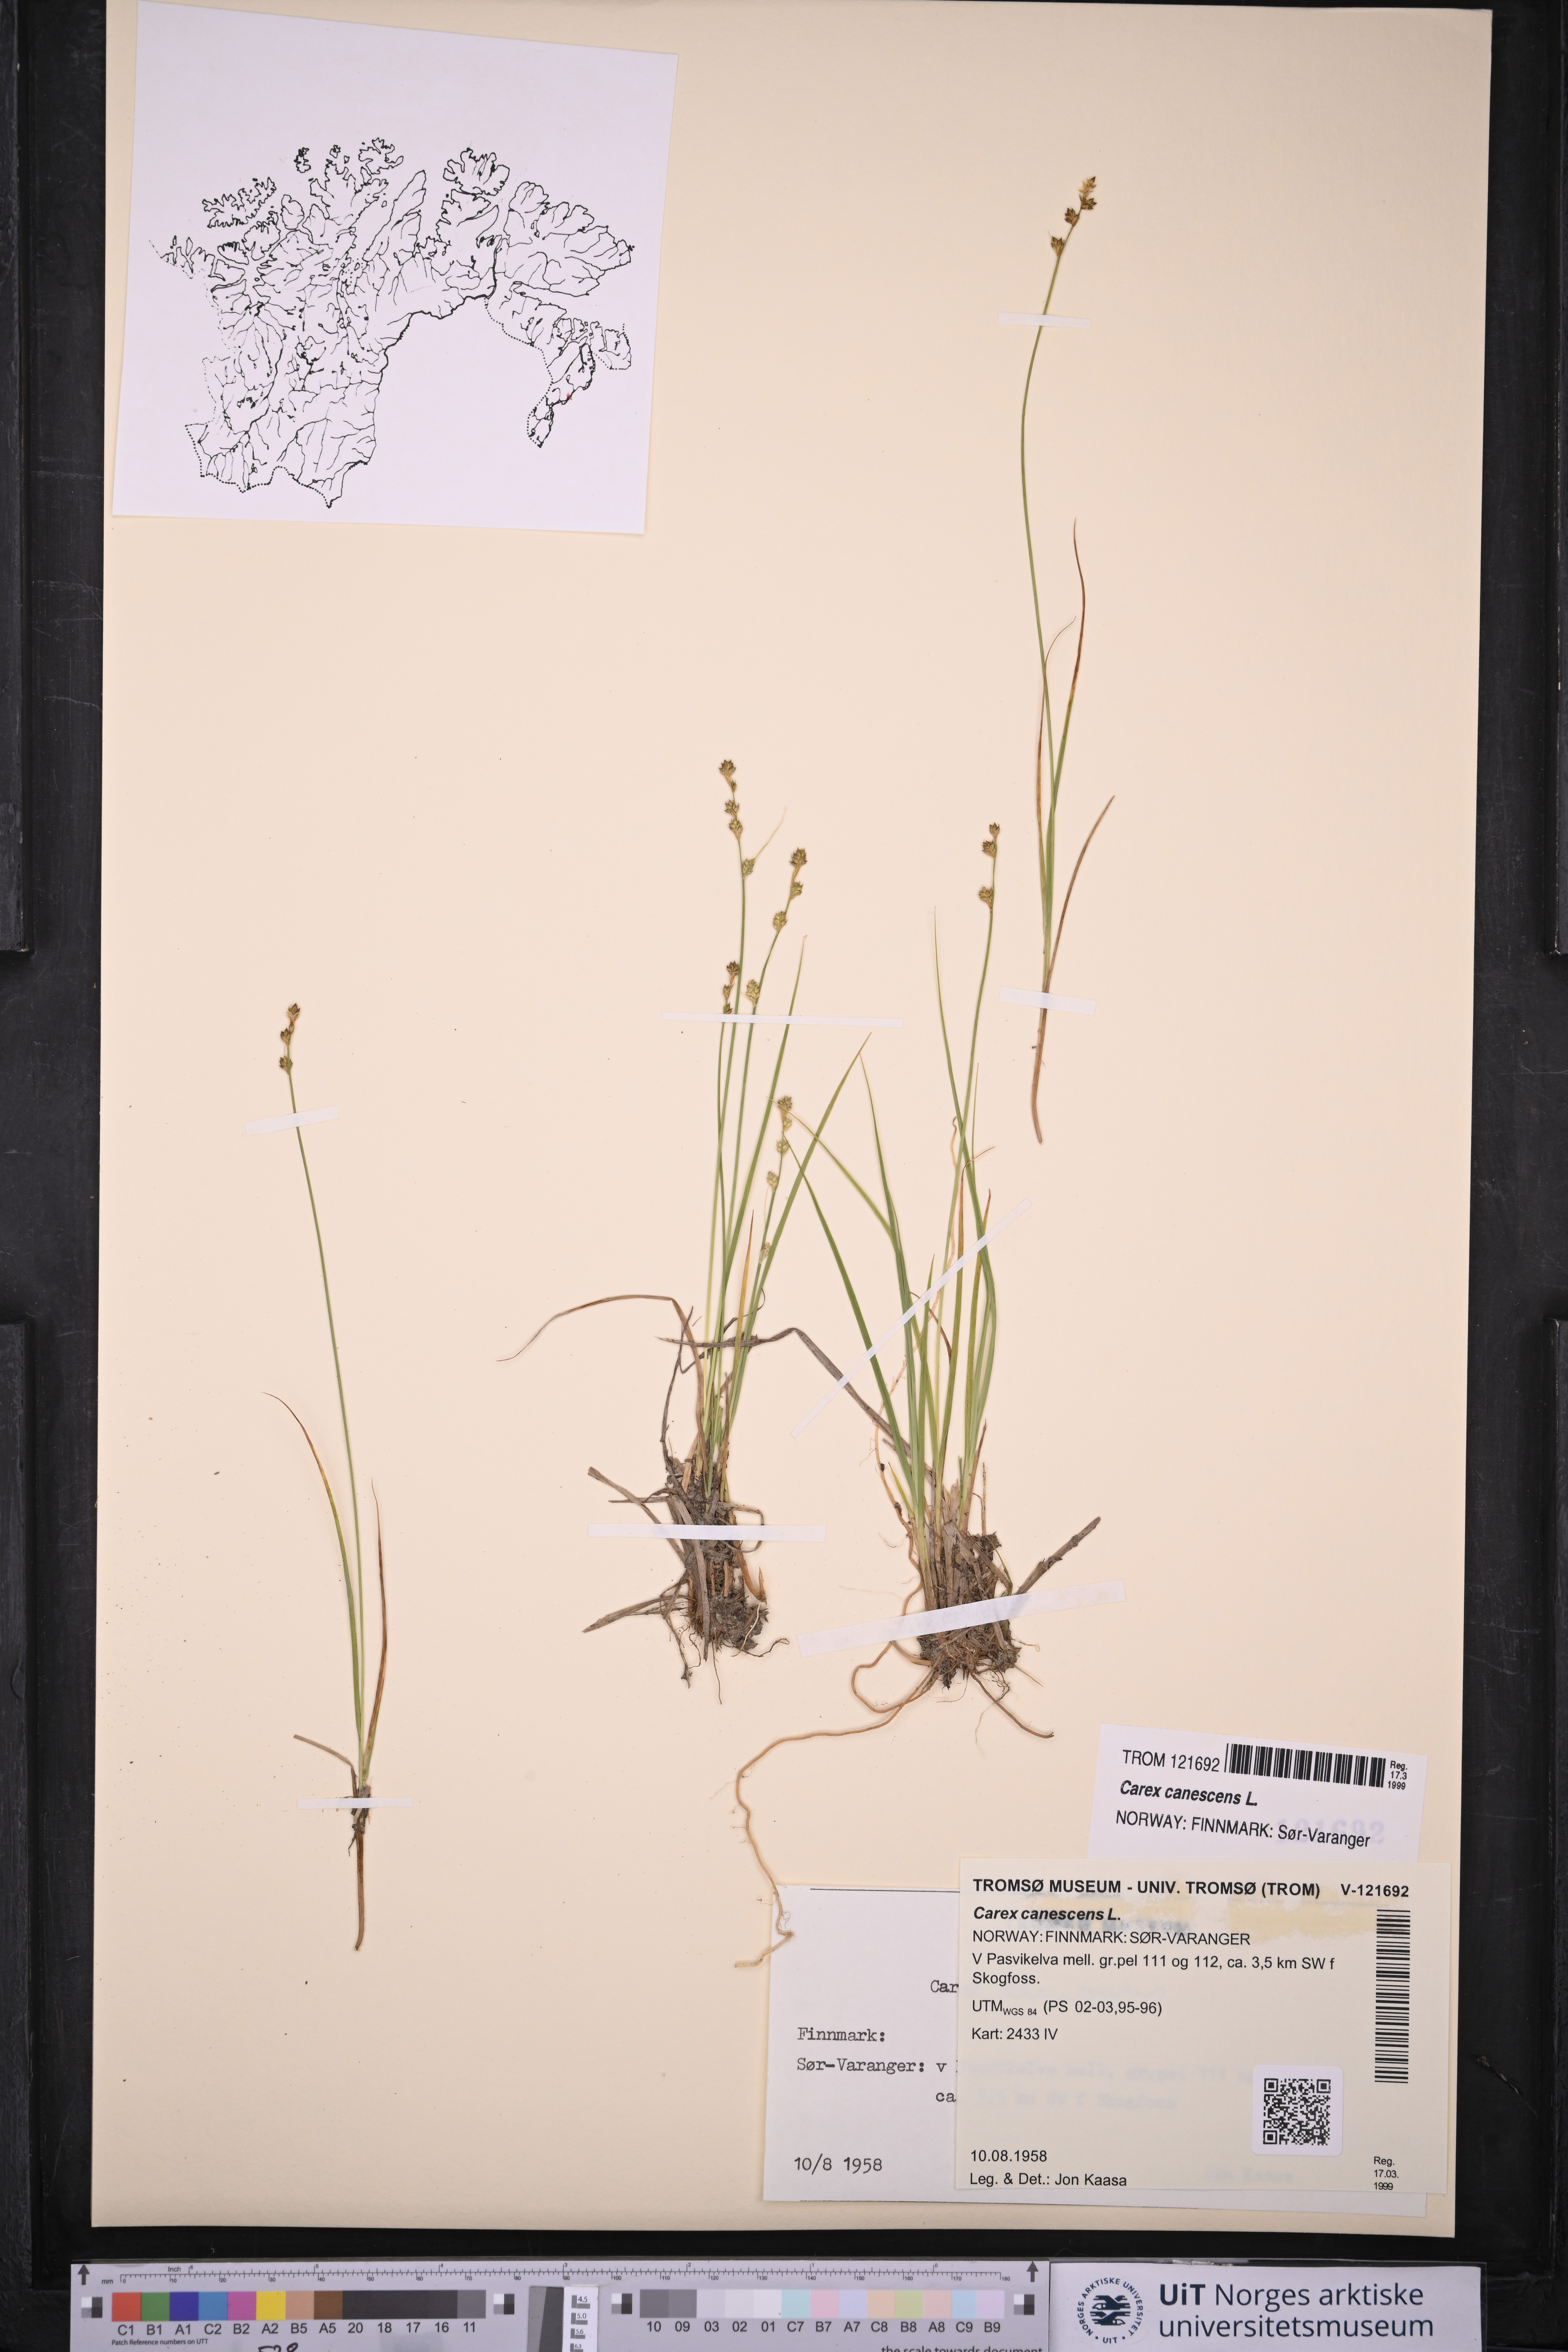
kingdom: Plantae
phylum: Tracheophyta
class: Liliopsida
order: Poales
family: Cyperaceae
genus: Carex
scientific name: Carex canescens
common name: White sedge
